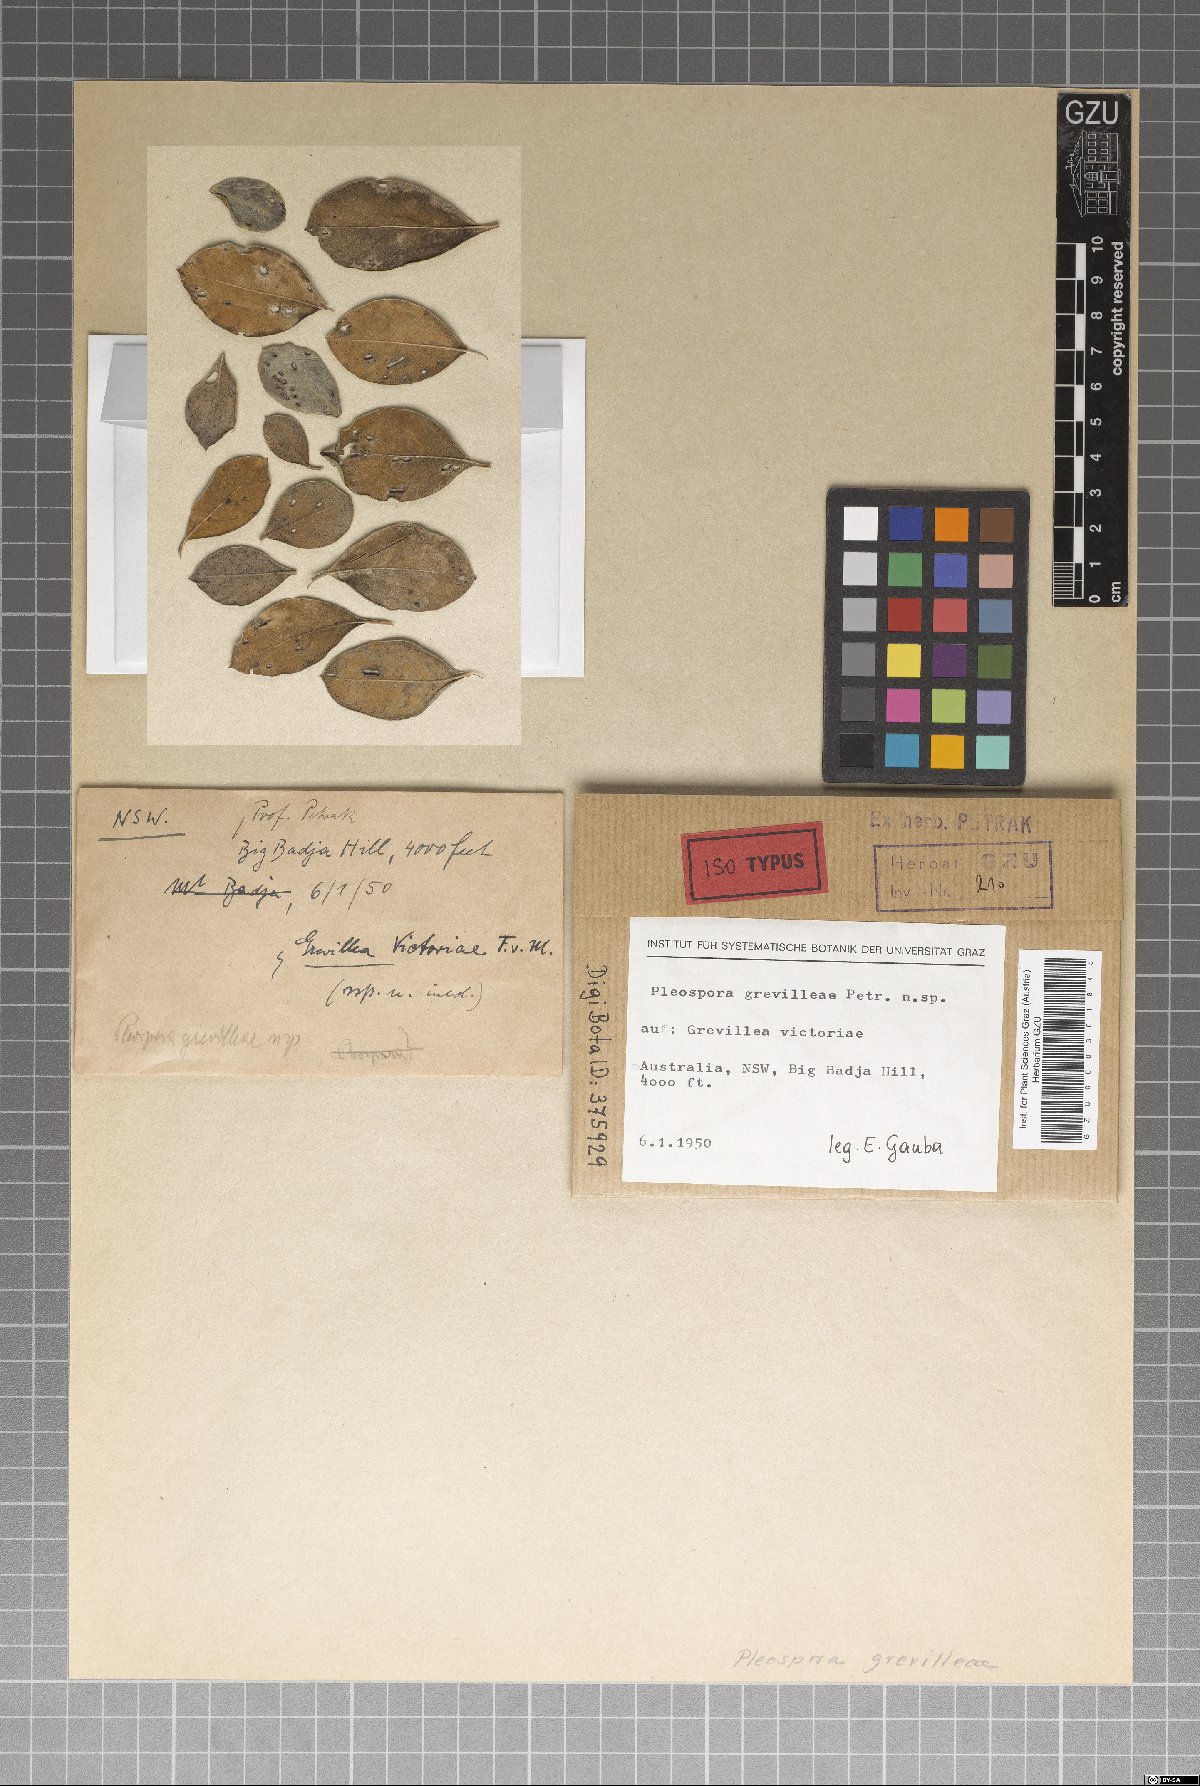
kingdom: Fungi
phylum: Ascomycota
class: Dothideomycetes
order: Pleosporales
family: Pleosporaceae
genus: Pleospora
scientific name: Pleospora grevilleae
